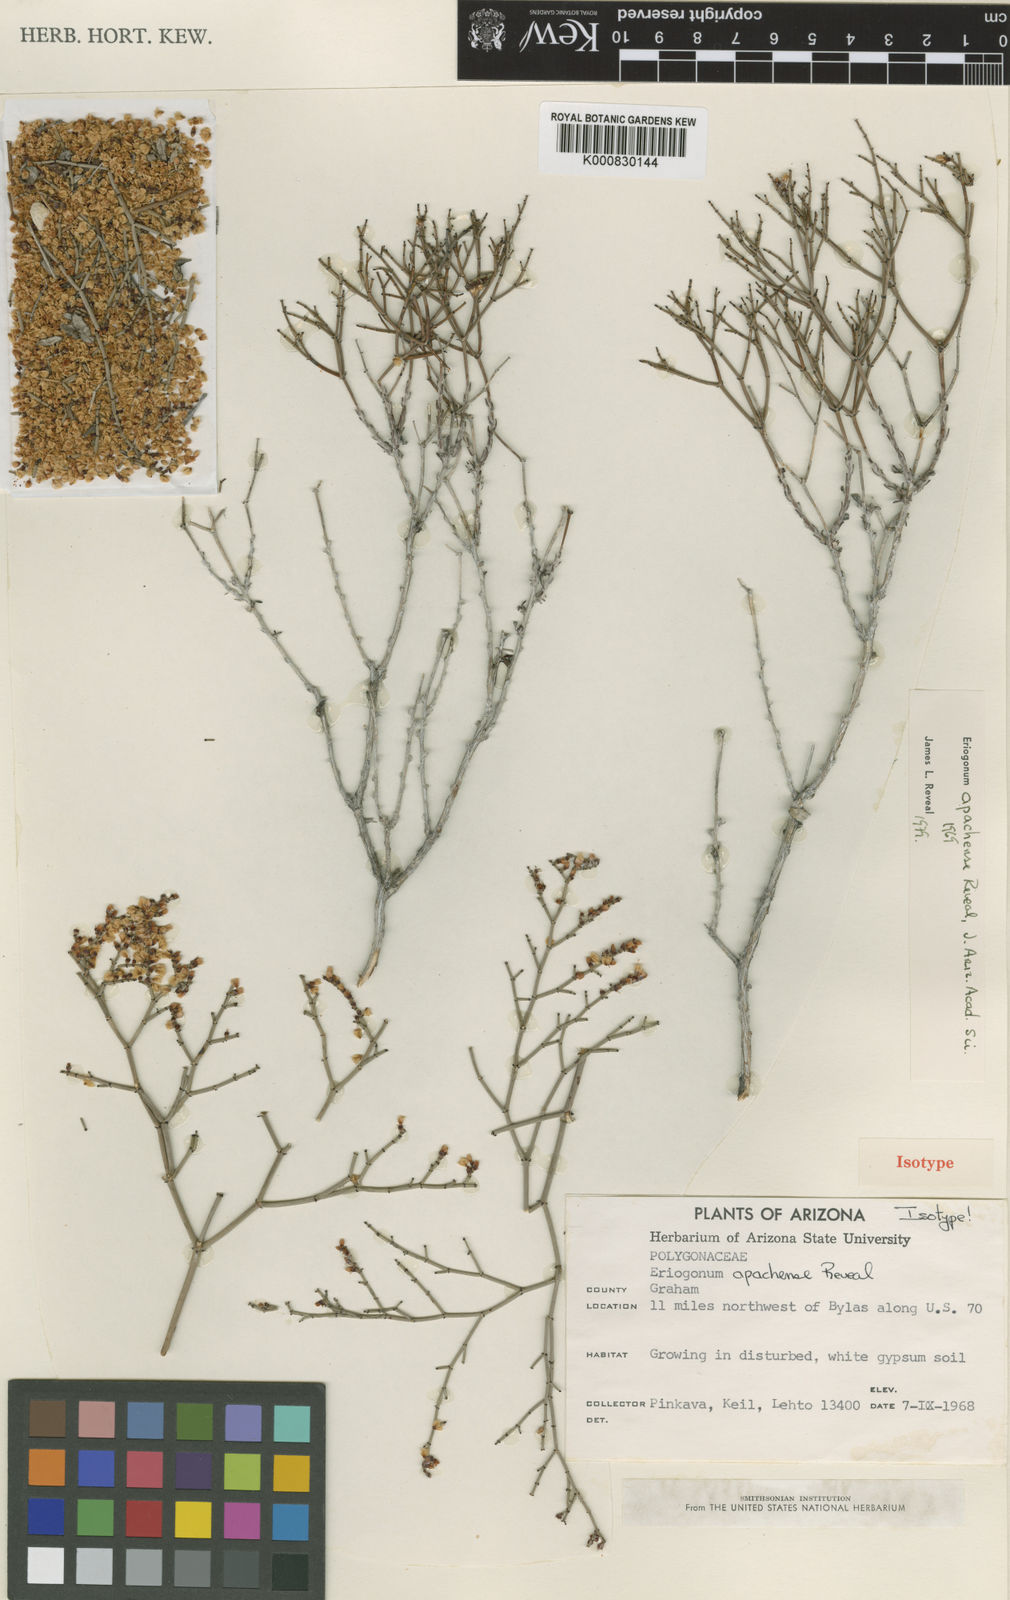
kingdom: Plantae
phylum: Tracheophyta
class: Magnoliopsida
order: Caryophyllales
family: Polygonaceae
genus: Eriogonum
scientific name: Eriogonum heermannii
